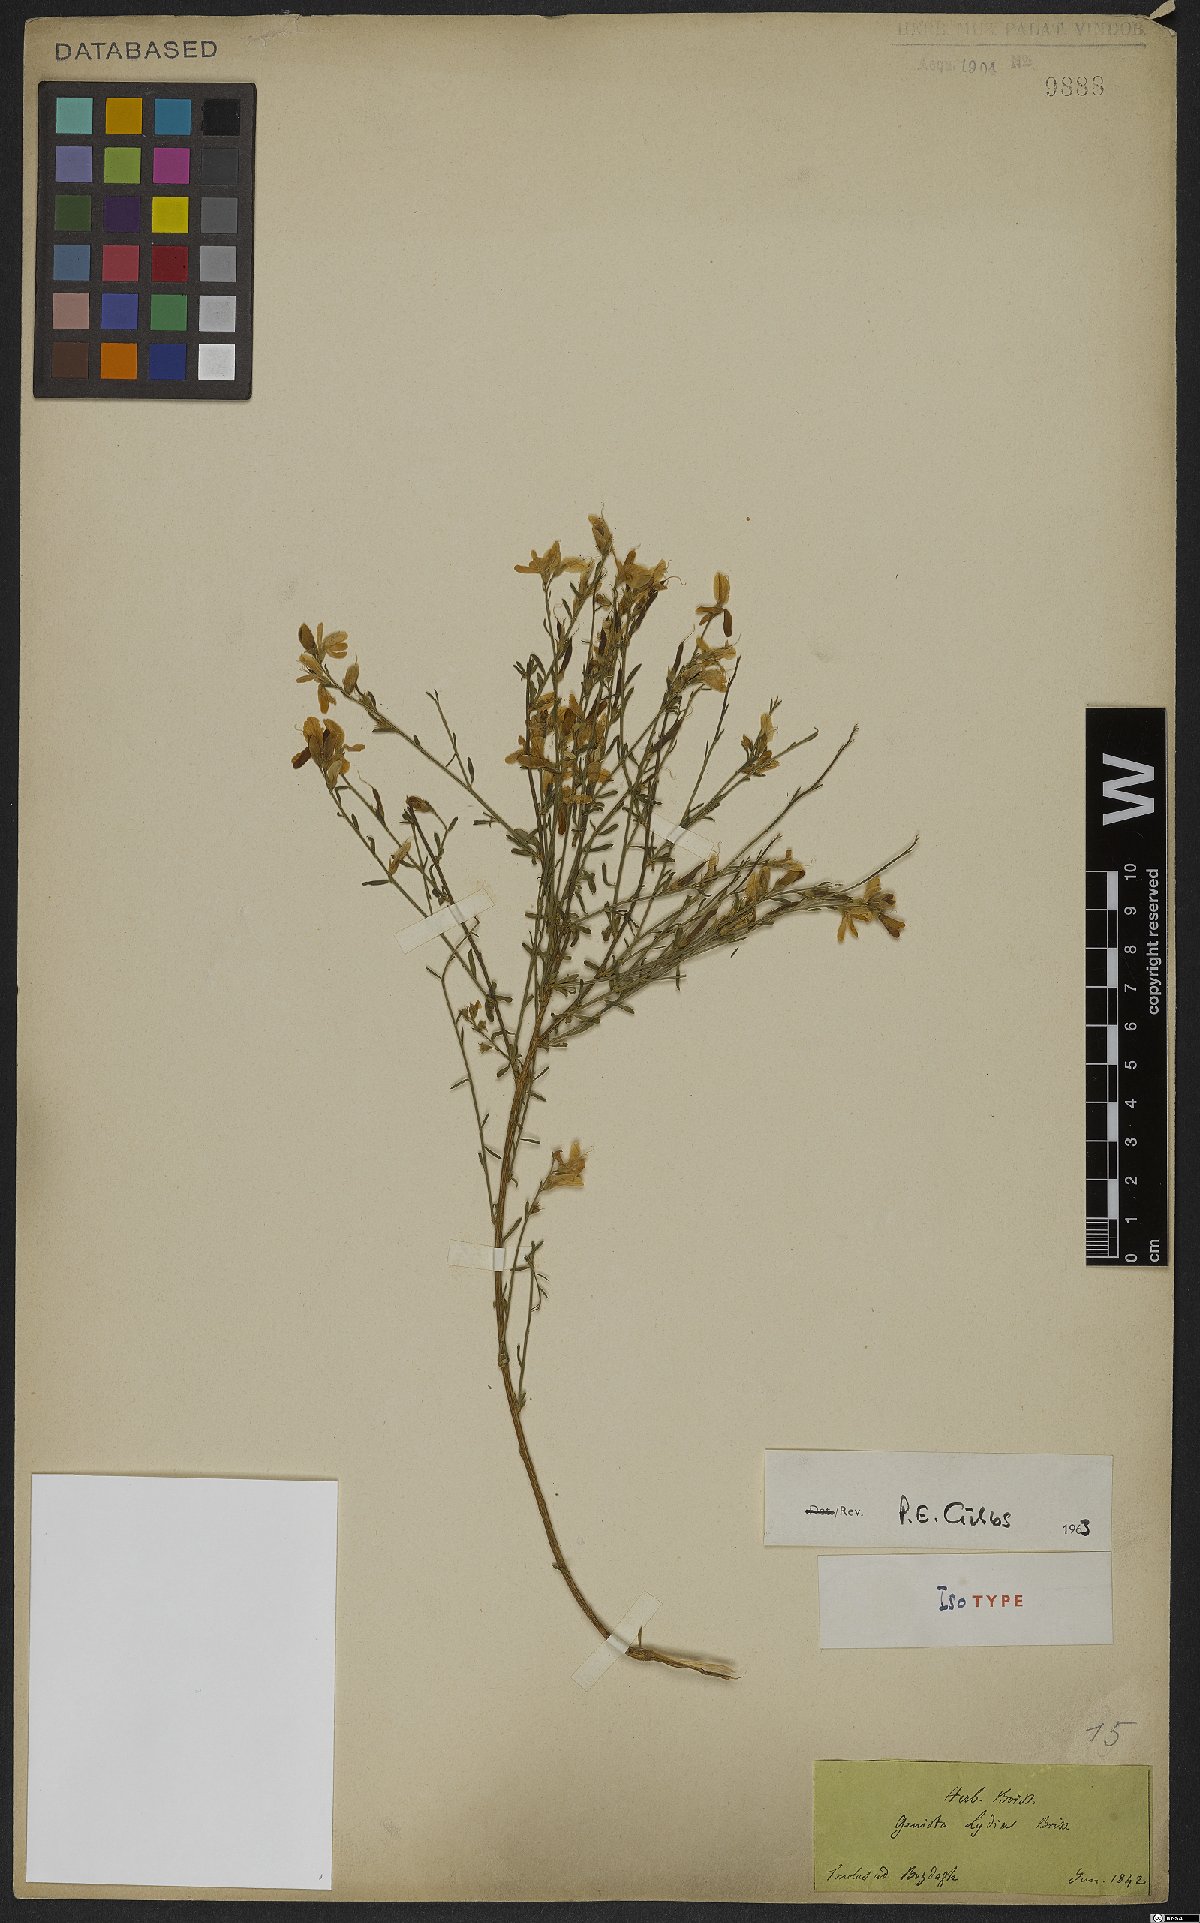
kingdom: Plantae
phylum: Tracheophyta
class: Magnoliopsida
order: Fabales
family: Fabaceae
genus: Genista
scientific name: Genista lydia
